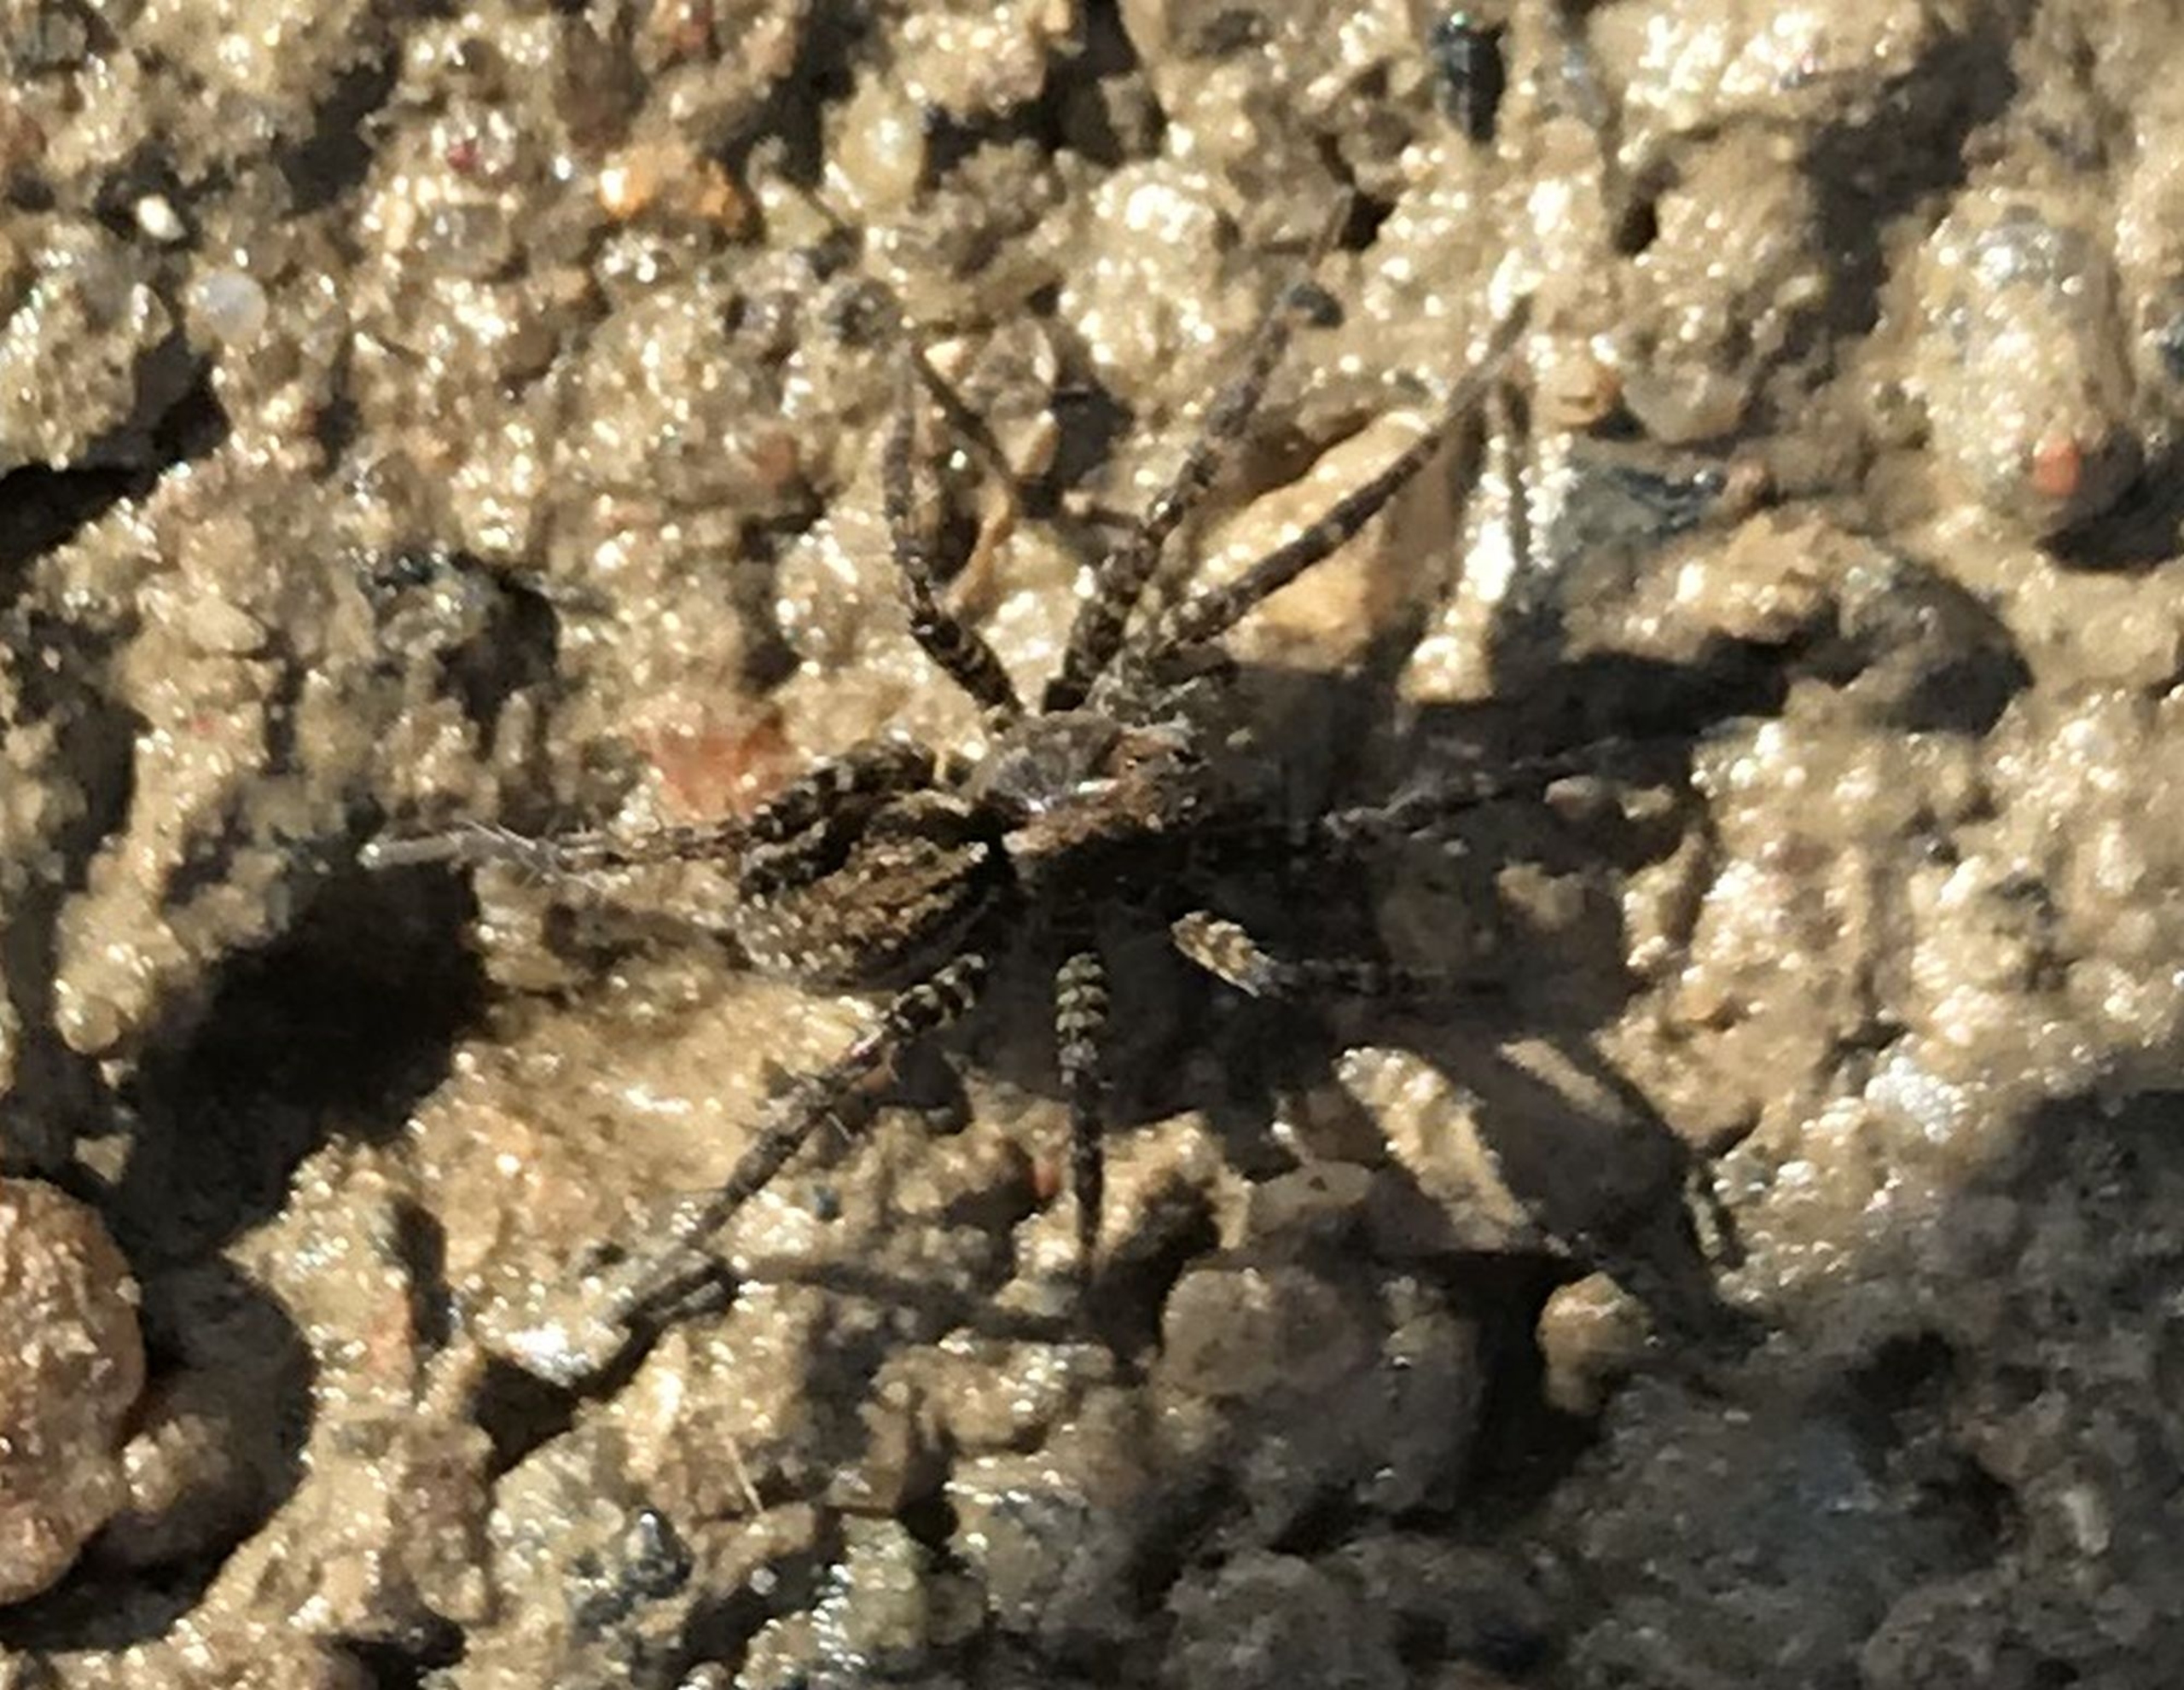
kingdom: Animalia
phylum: Arthropoda
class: Arachnida
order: Araneae
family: Lycosidae
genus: Pardosa
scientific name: Pardosa
